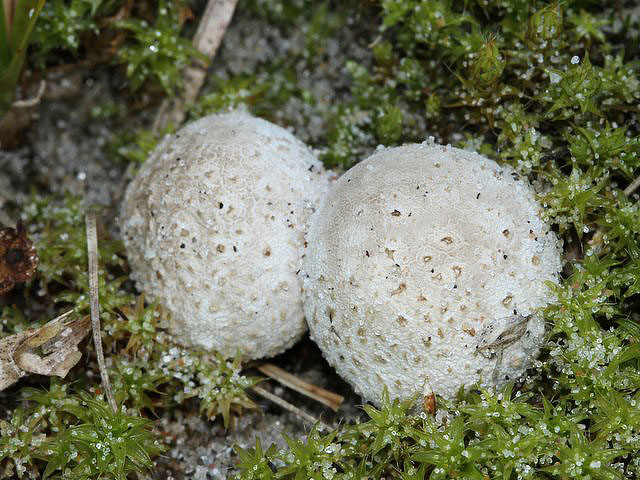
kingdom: Fungi
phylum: Basidiomycota
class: Agaricomycetes
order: Agaricales
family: Agaricaceae
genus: Tulostoma
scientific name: Tulostoma fimbriatum
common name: frynset stilkbovist
